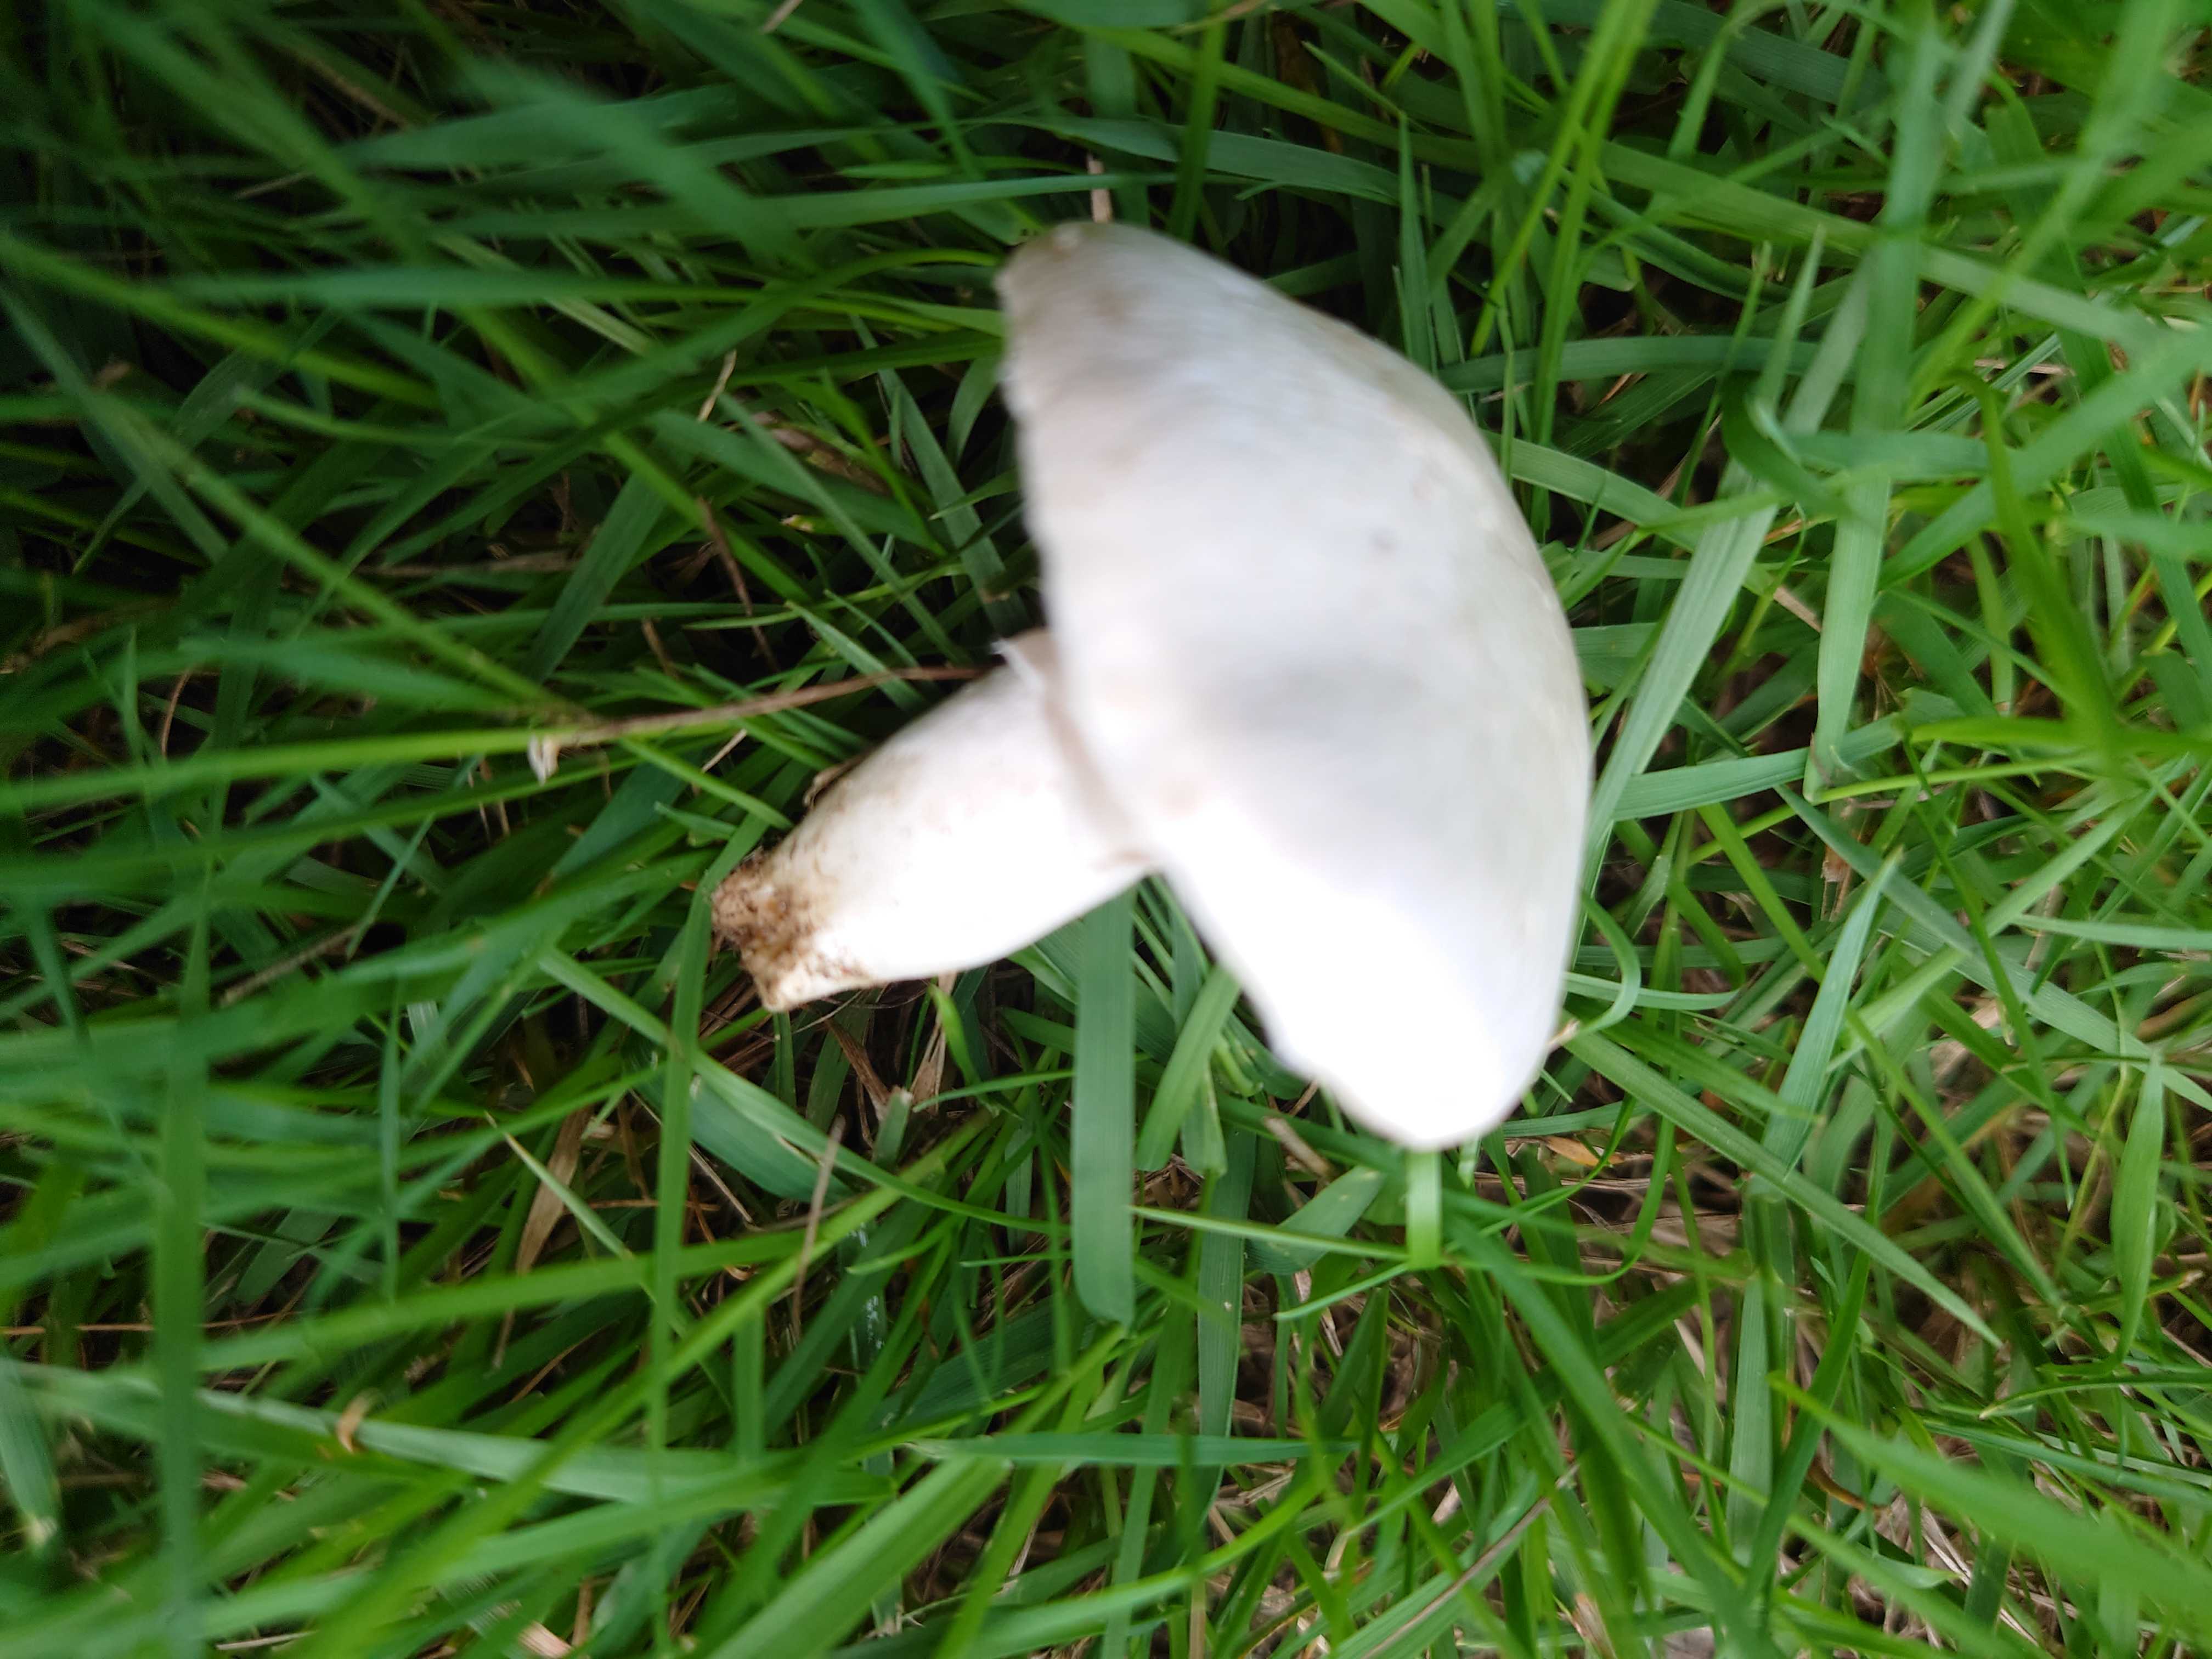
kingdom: Fungi
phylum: Basidiomycota
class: Agaricomycetes
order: Agaricales
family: Agaricaceae
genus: Agaricus
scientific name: Agaricus campestris
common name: mark-champignon
